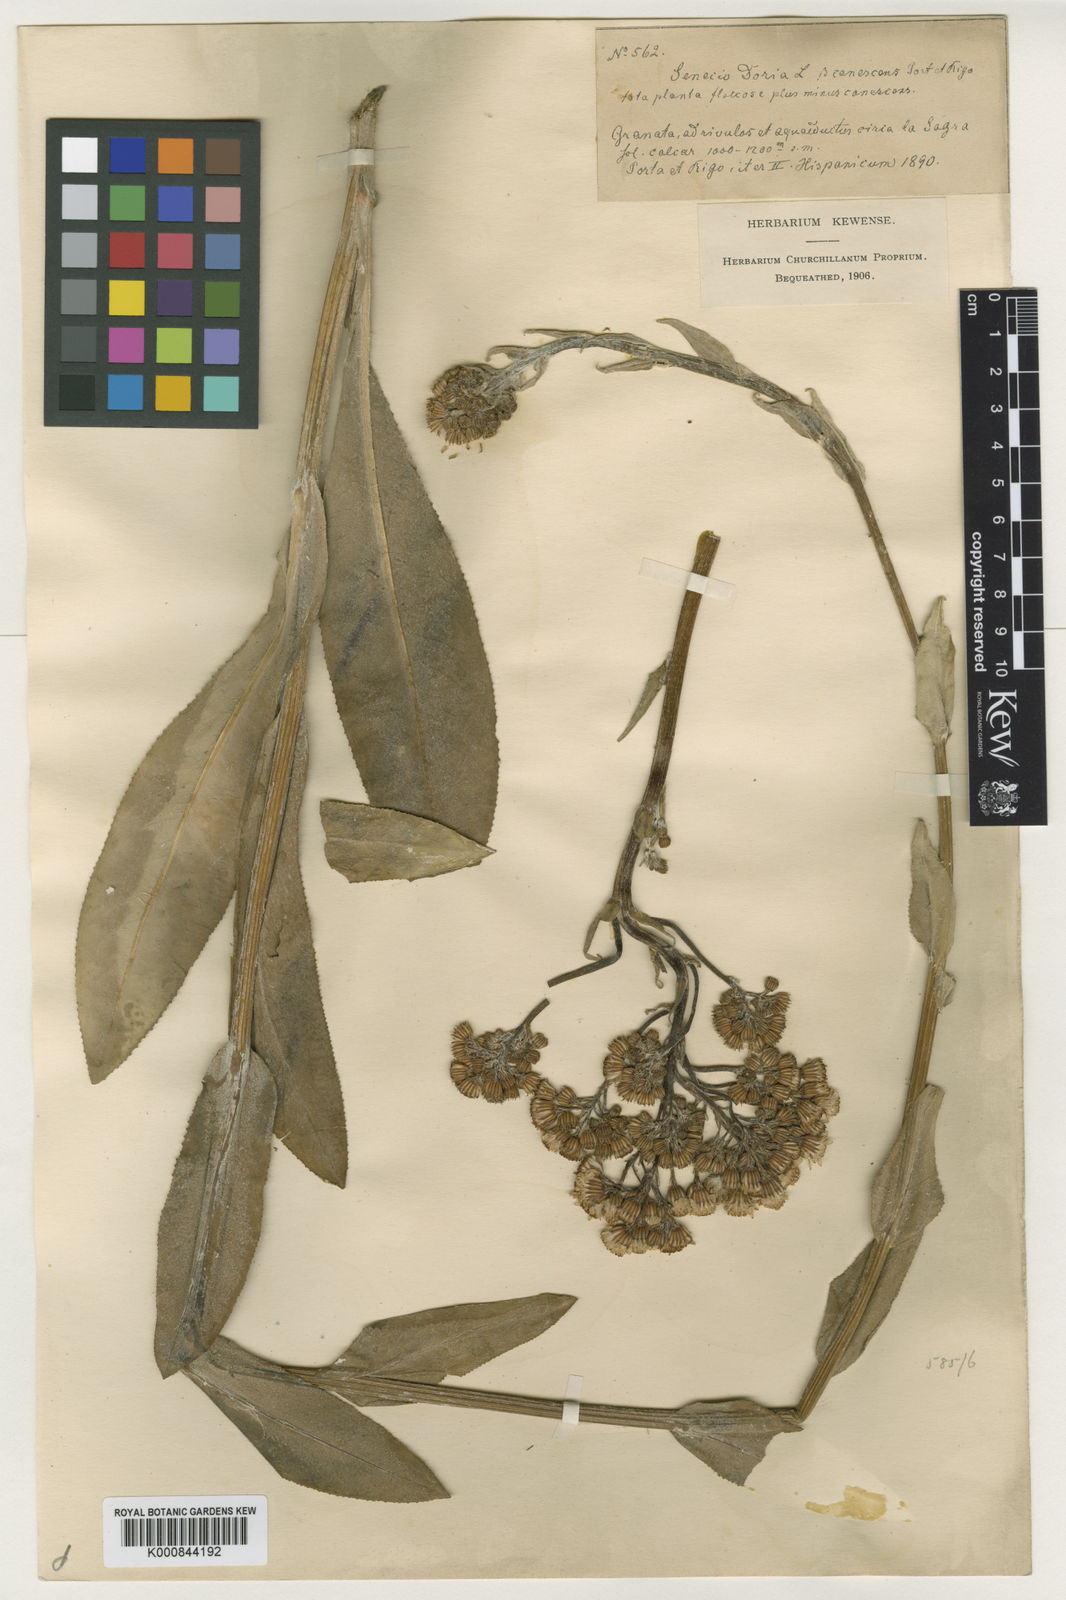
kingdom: Plantae
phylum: Tracheophyta
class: Magnoliopsida
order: Asterales
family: Asteraceae
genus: Senecio
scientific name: Senecio doria
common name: Golden ragwort
